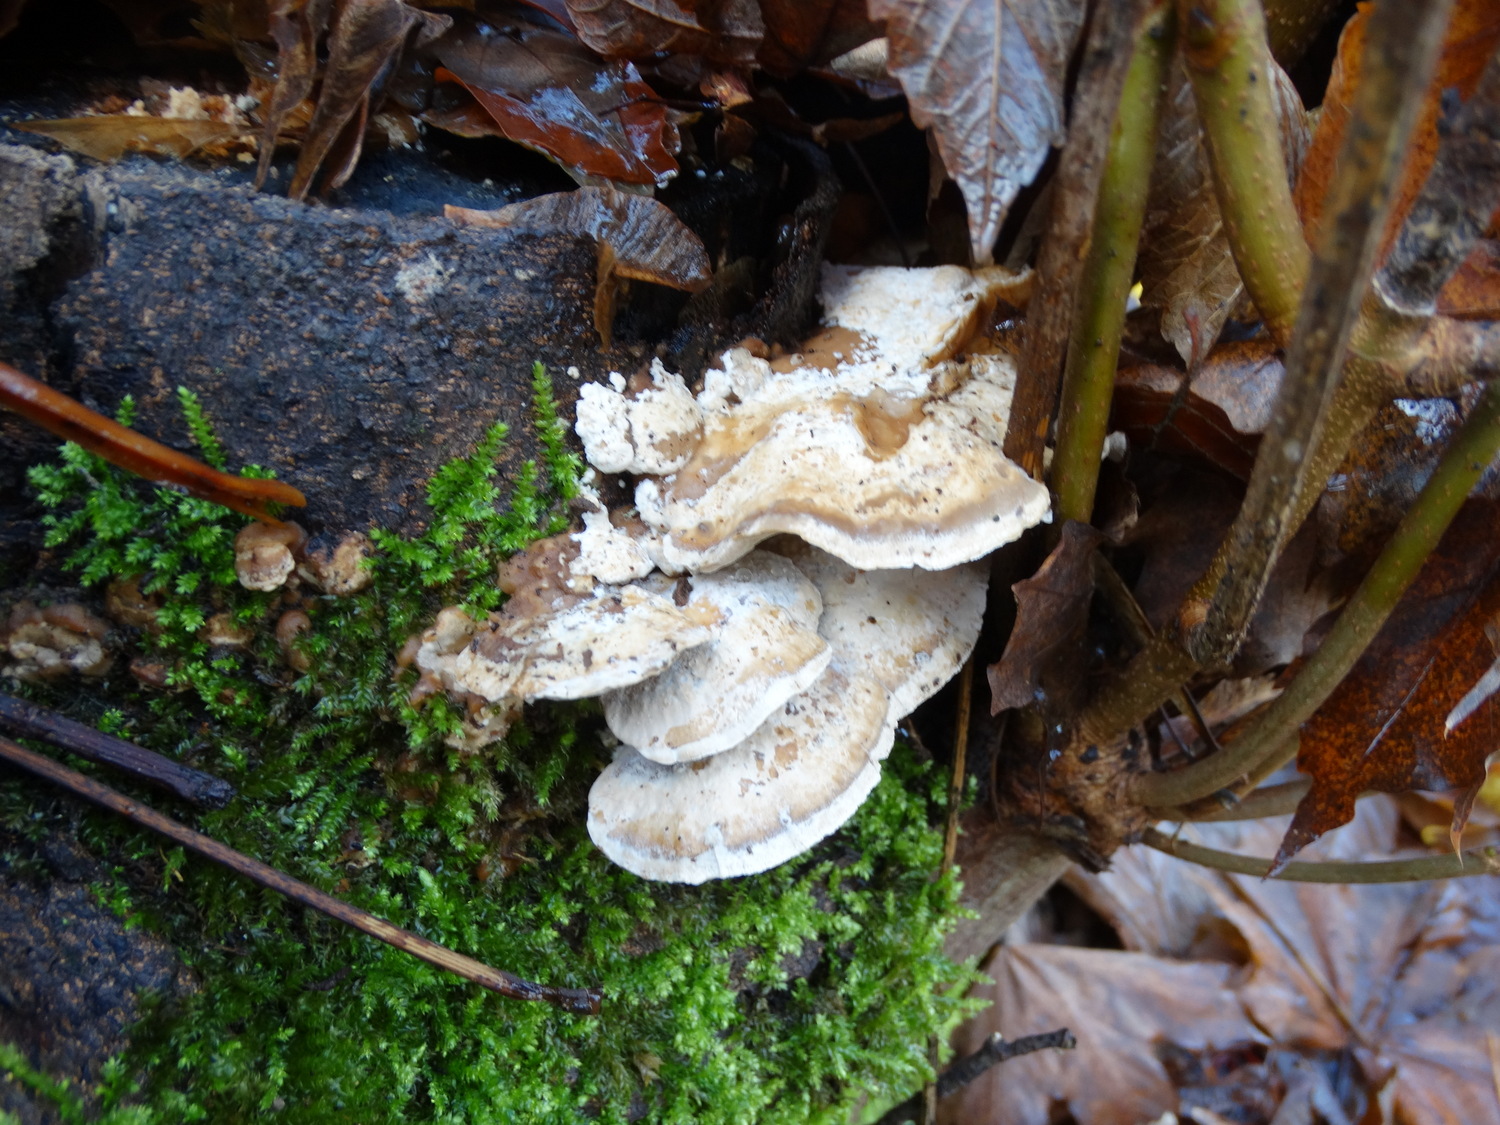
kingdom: Fungi
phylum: Basidiomycota
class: Agaricomycetes
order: Polyporales
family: Phanerochaetaceae
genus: Bjerkandera
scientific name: Bjerkandera fumosa
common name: grågul sodporesvamp
